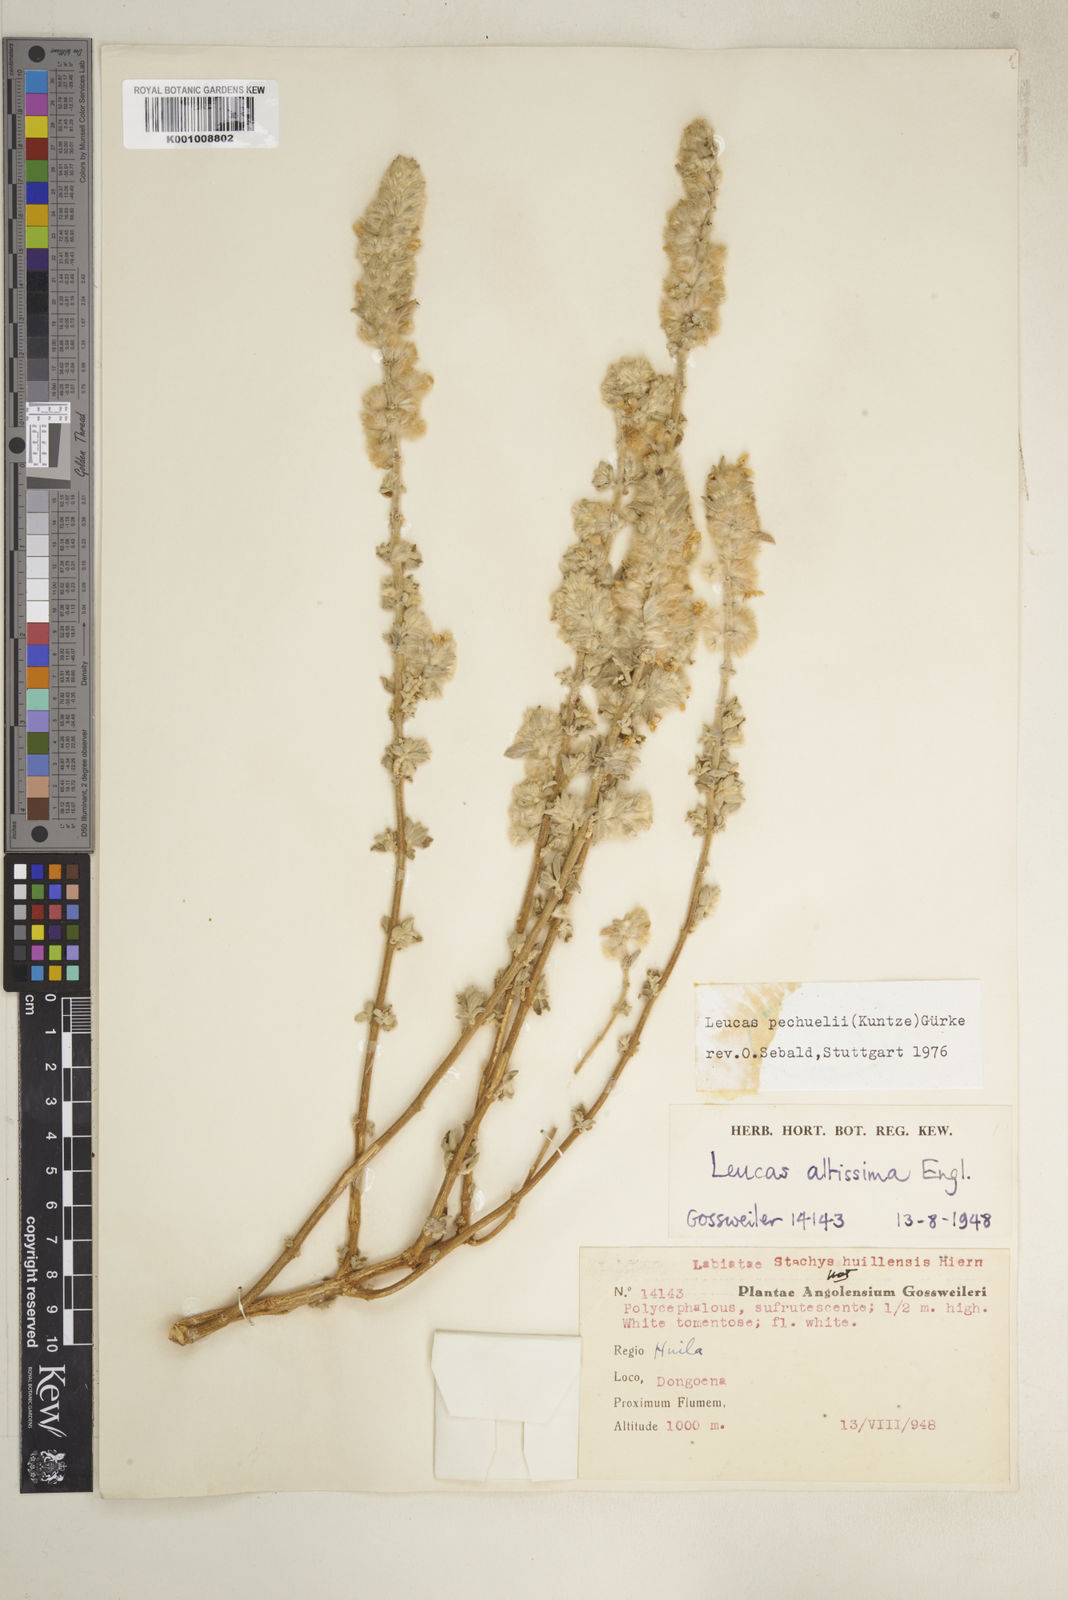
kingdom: Plantae
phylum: Tracheophyta
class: Magnoliopsida
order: Lamiales
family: Lamiaceae
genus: Leucas
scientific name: Leucas pechuelii
